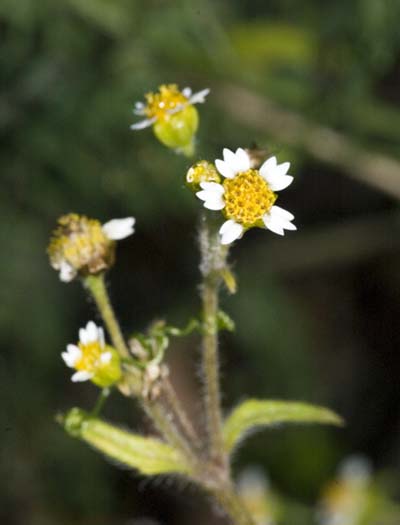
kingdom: Plantae
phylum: Tracheophyta
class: Magnoliopsida
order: Asterales
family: Asteraceae
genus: Galinsoga
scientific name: Galinsoga quadriradiata
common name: Shaggy soldier
